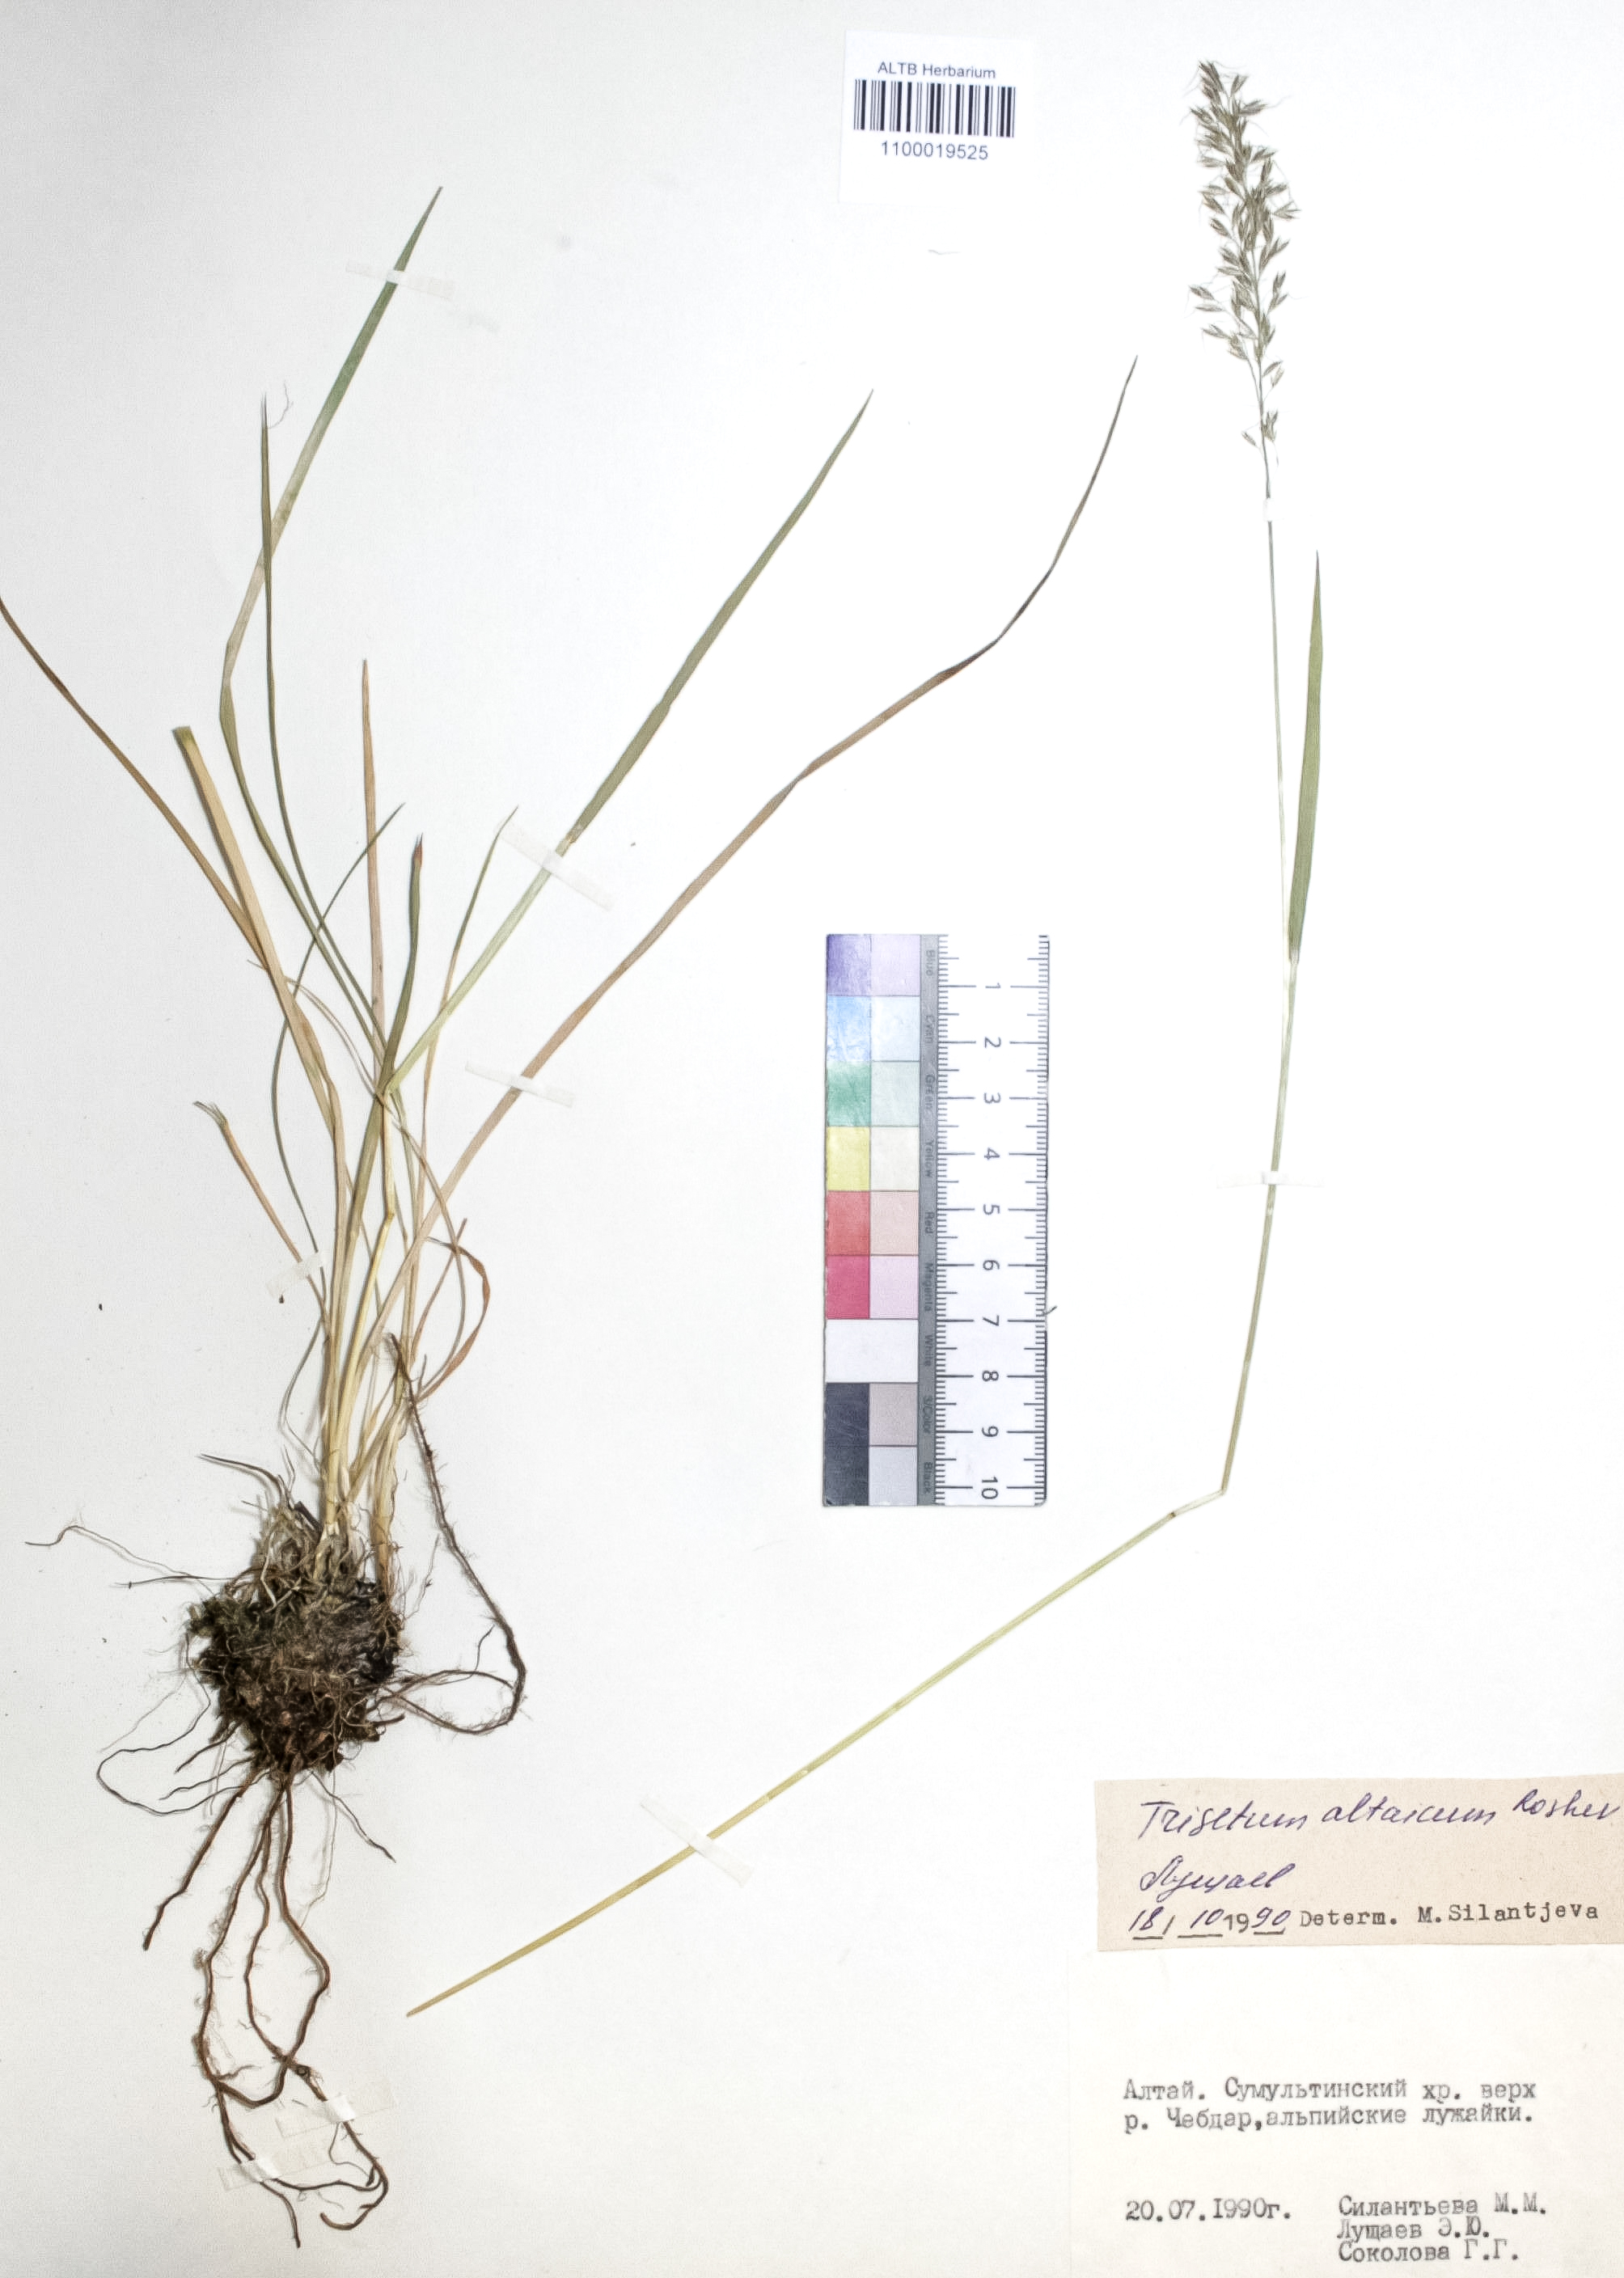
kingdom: Plantae
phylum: Tracheophyta
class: Liliopsida
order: Poales
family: Poaceae
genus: Trisetum
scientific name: Trisetum altaicum
